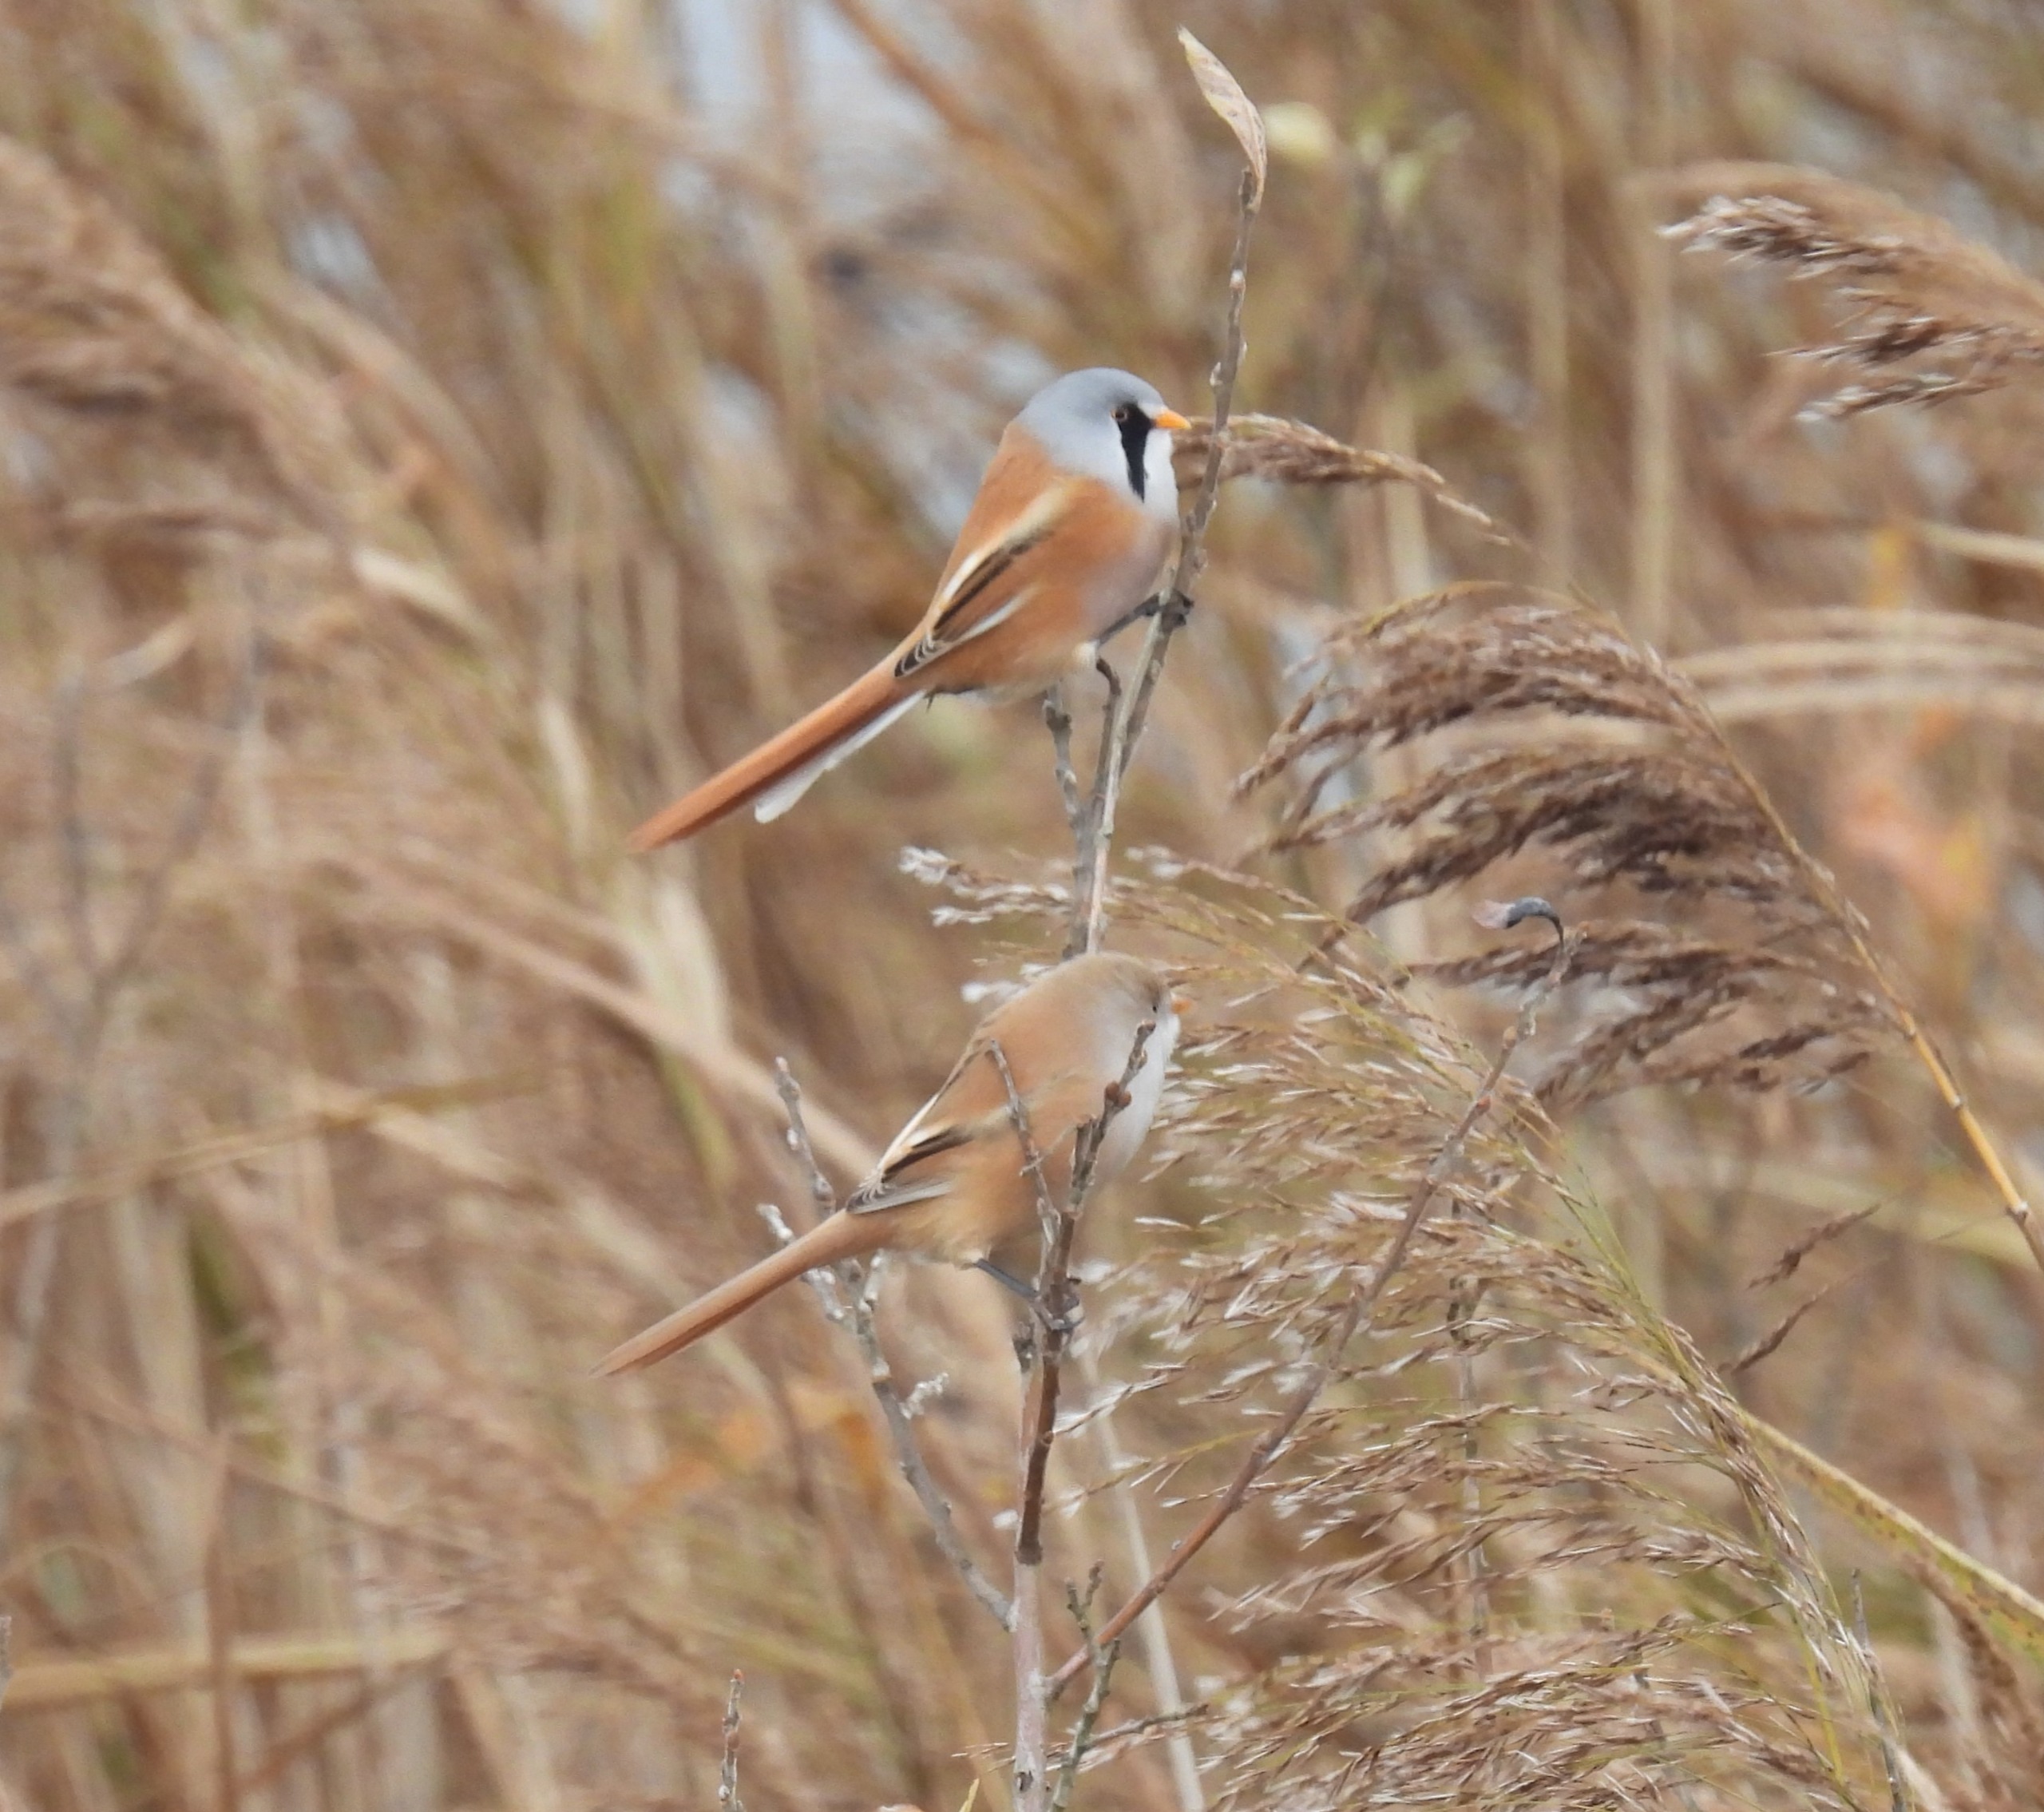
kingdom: Animalia
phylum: Chordata
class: Aves
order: Passeriformes
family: Panuridae
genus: Panurus
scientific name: Panurus biarmicus
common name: Skægmejse
